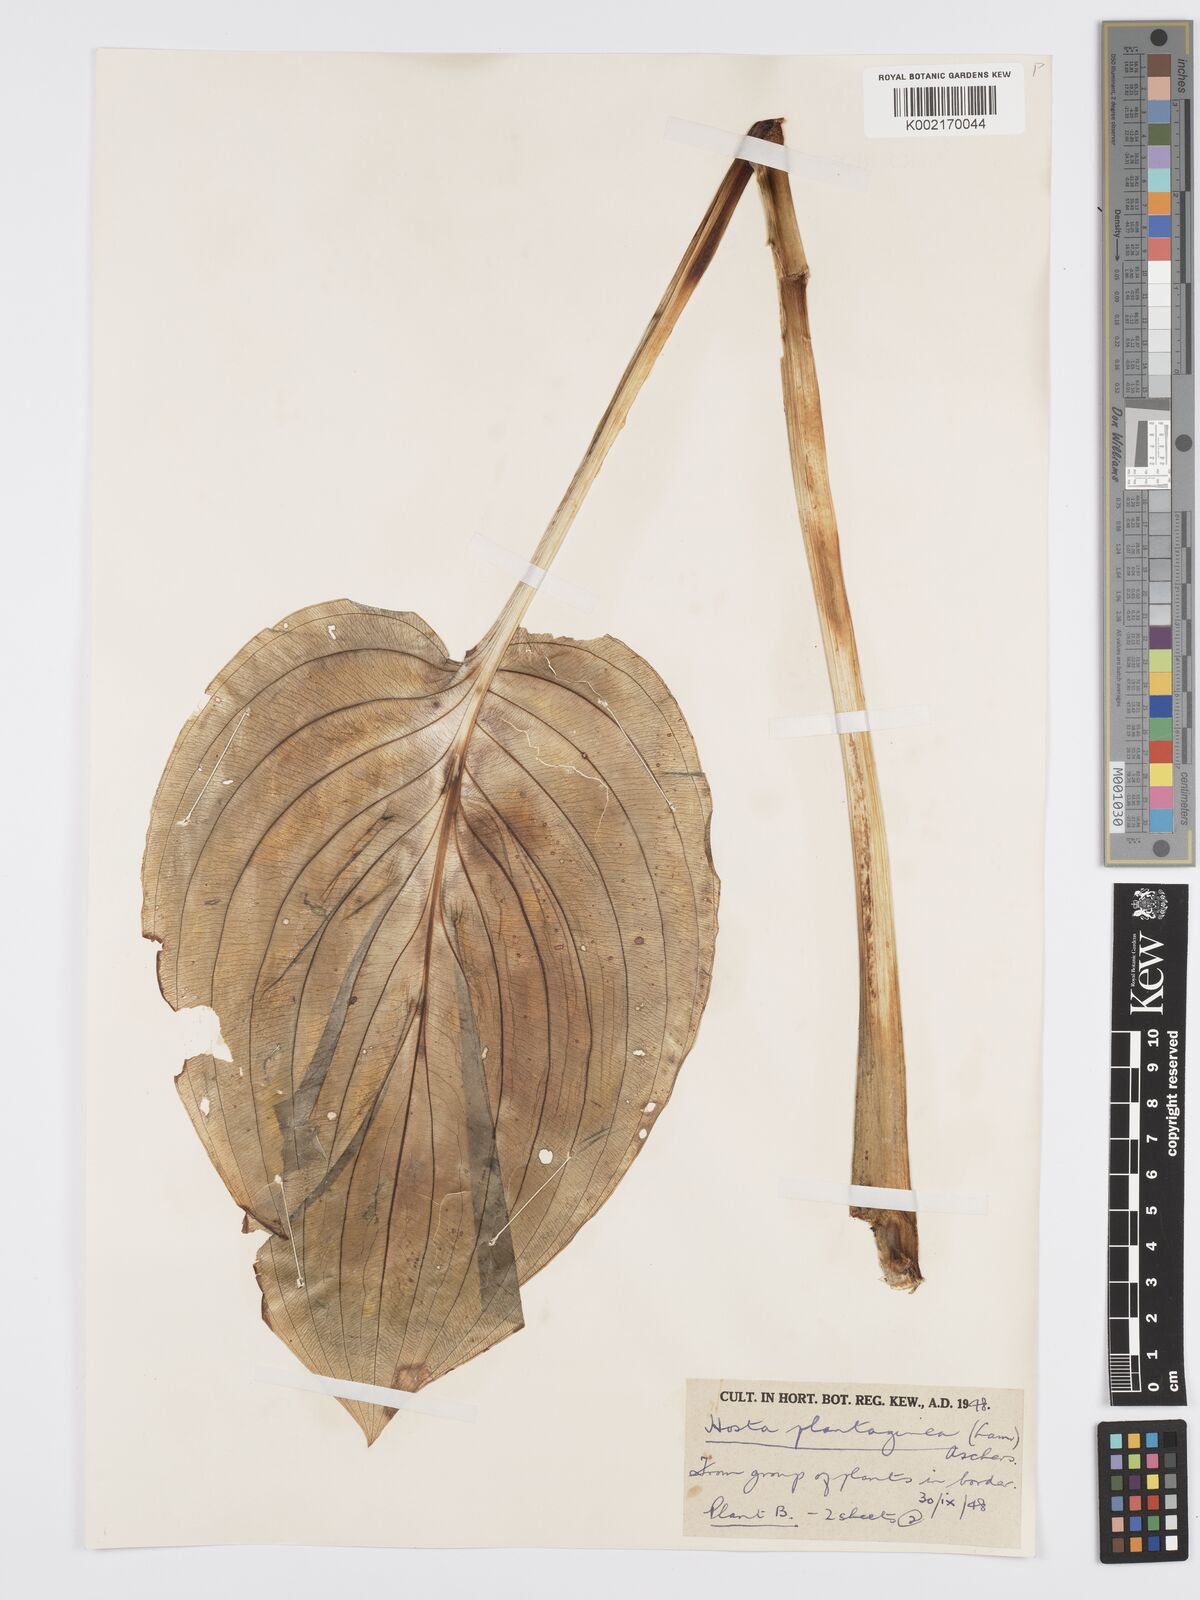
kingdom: Plantae
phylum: Tracheophyta
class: Liliopsida
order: Asparagales
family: Asparagaceae
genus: Hosta
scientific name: Hosta plantaginea
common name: August-lily
